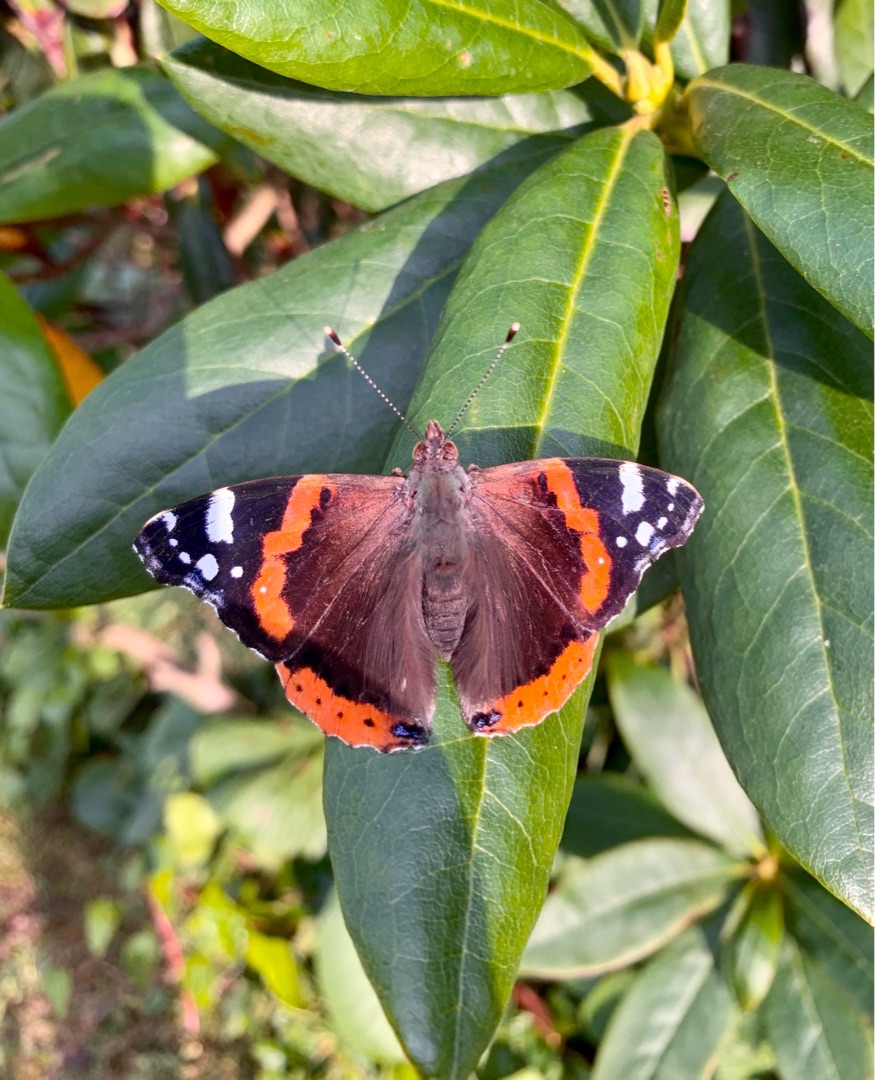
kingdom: Animalia
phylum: Arthropoda
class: Insecta
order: Lepidoptera
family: Nymphalidae
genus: Vanessa
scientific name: Vanessa atalanta
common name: Admiral
